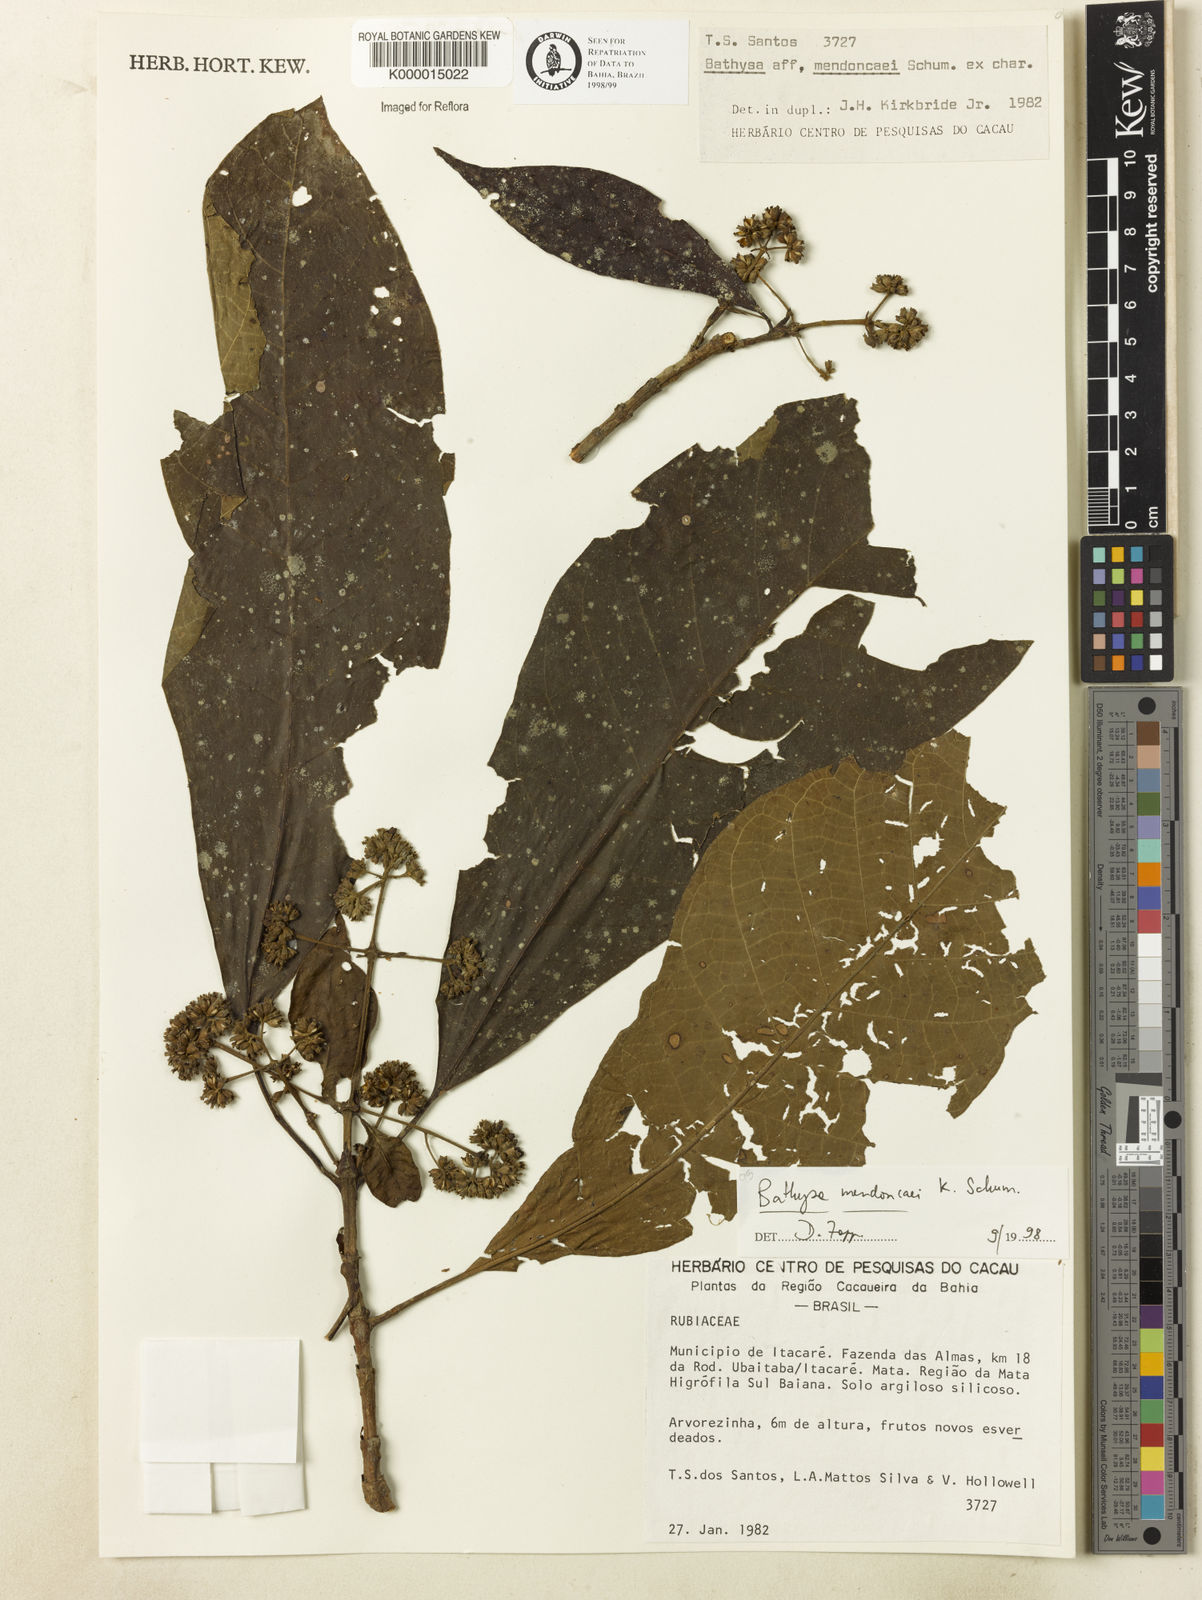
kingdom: Plantae
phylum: Tracheophyta
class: Magnoliopsida
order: Gentianales
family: Rubiaceae
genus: Bathysa
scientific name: Bathysa
